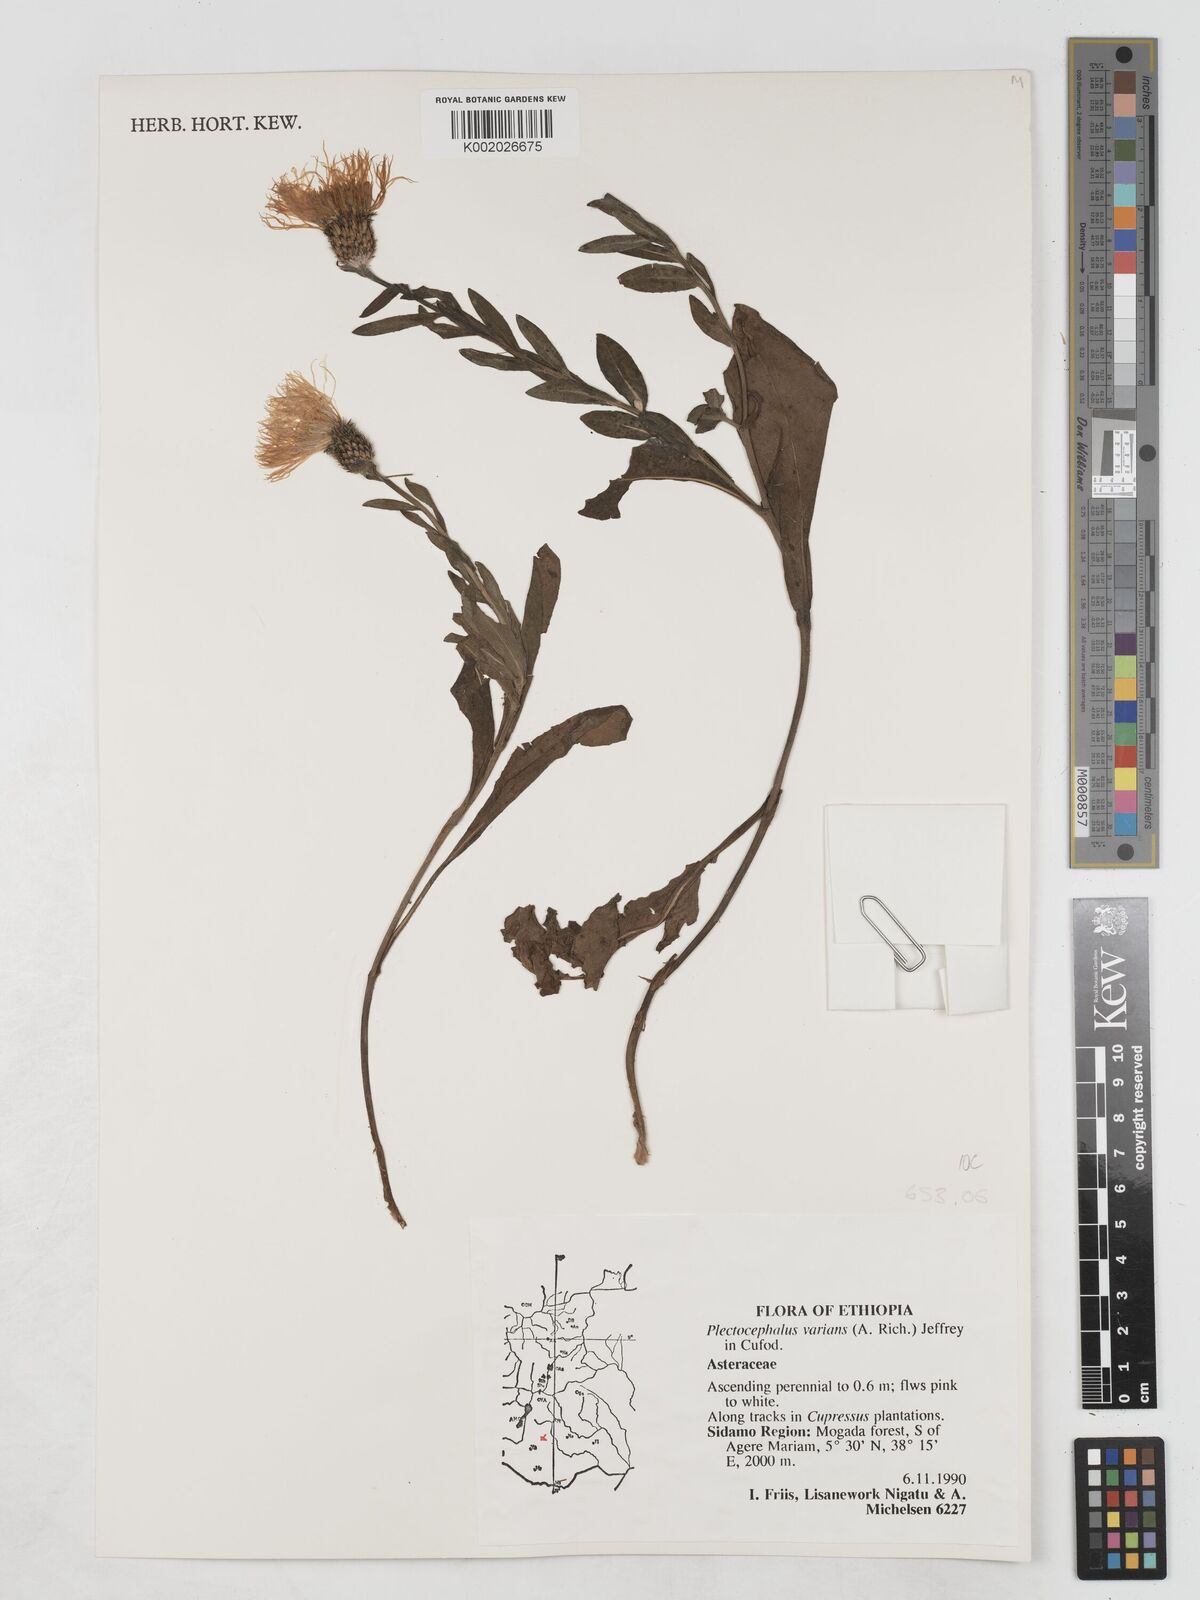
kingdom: Plantae
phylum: Tracheophyta
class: Magnoliopsida
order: Asterales
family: Asteraceae
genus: Plectocephalus
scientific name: Plectocephalus varians
